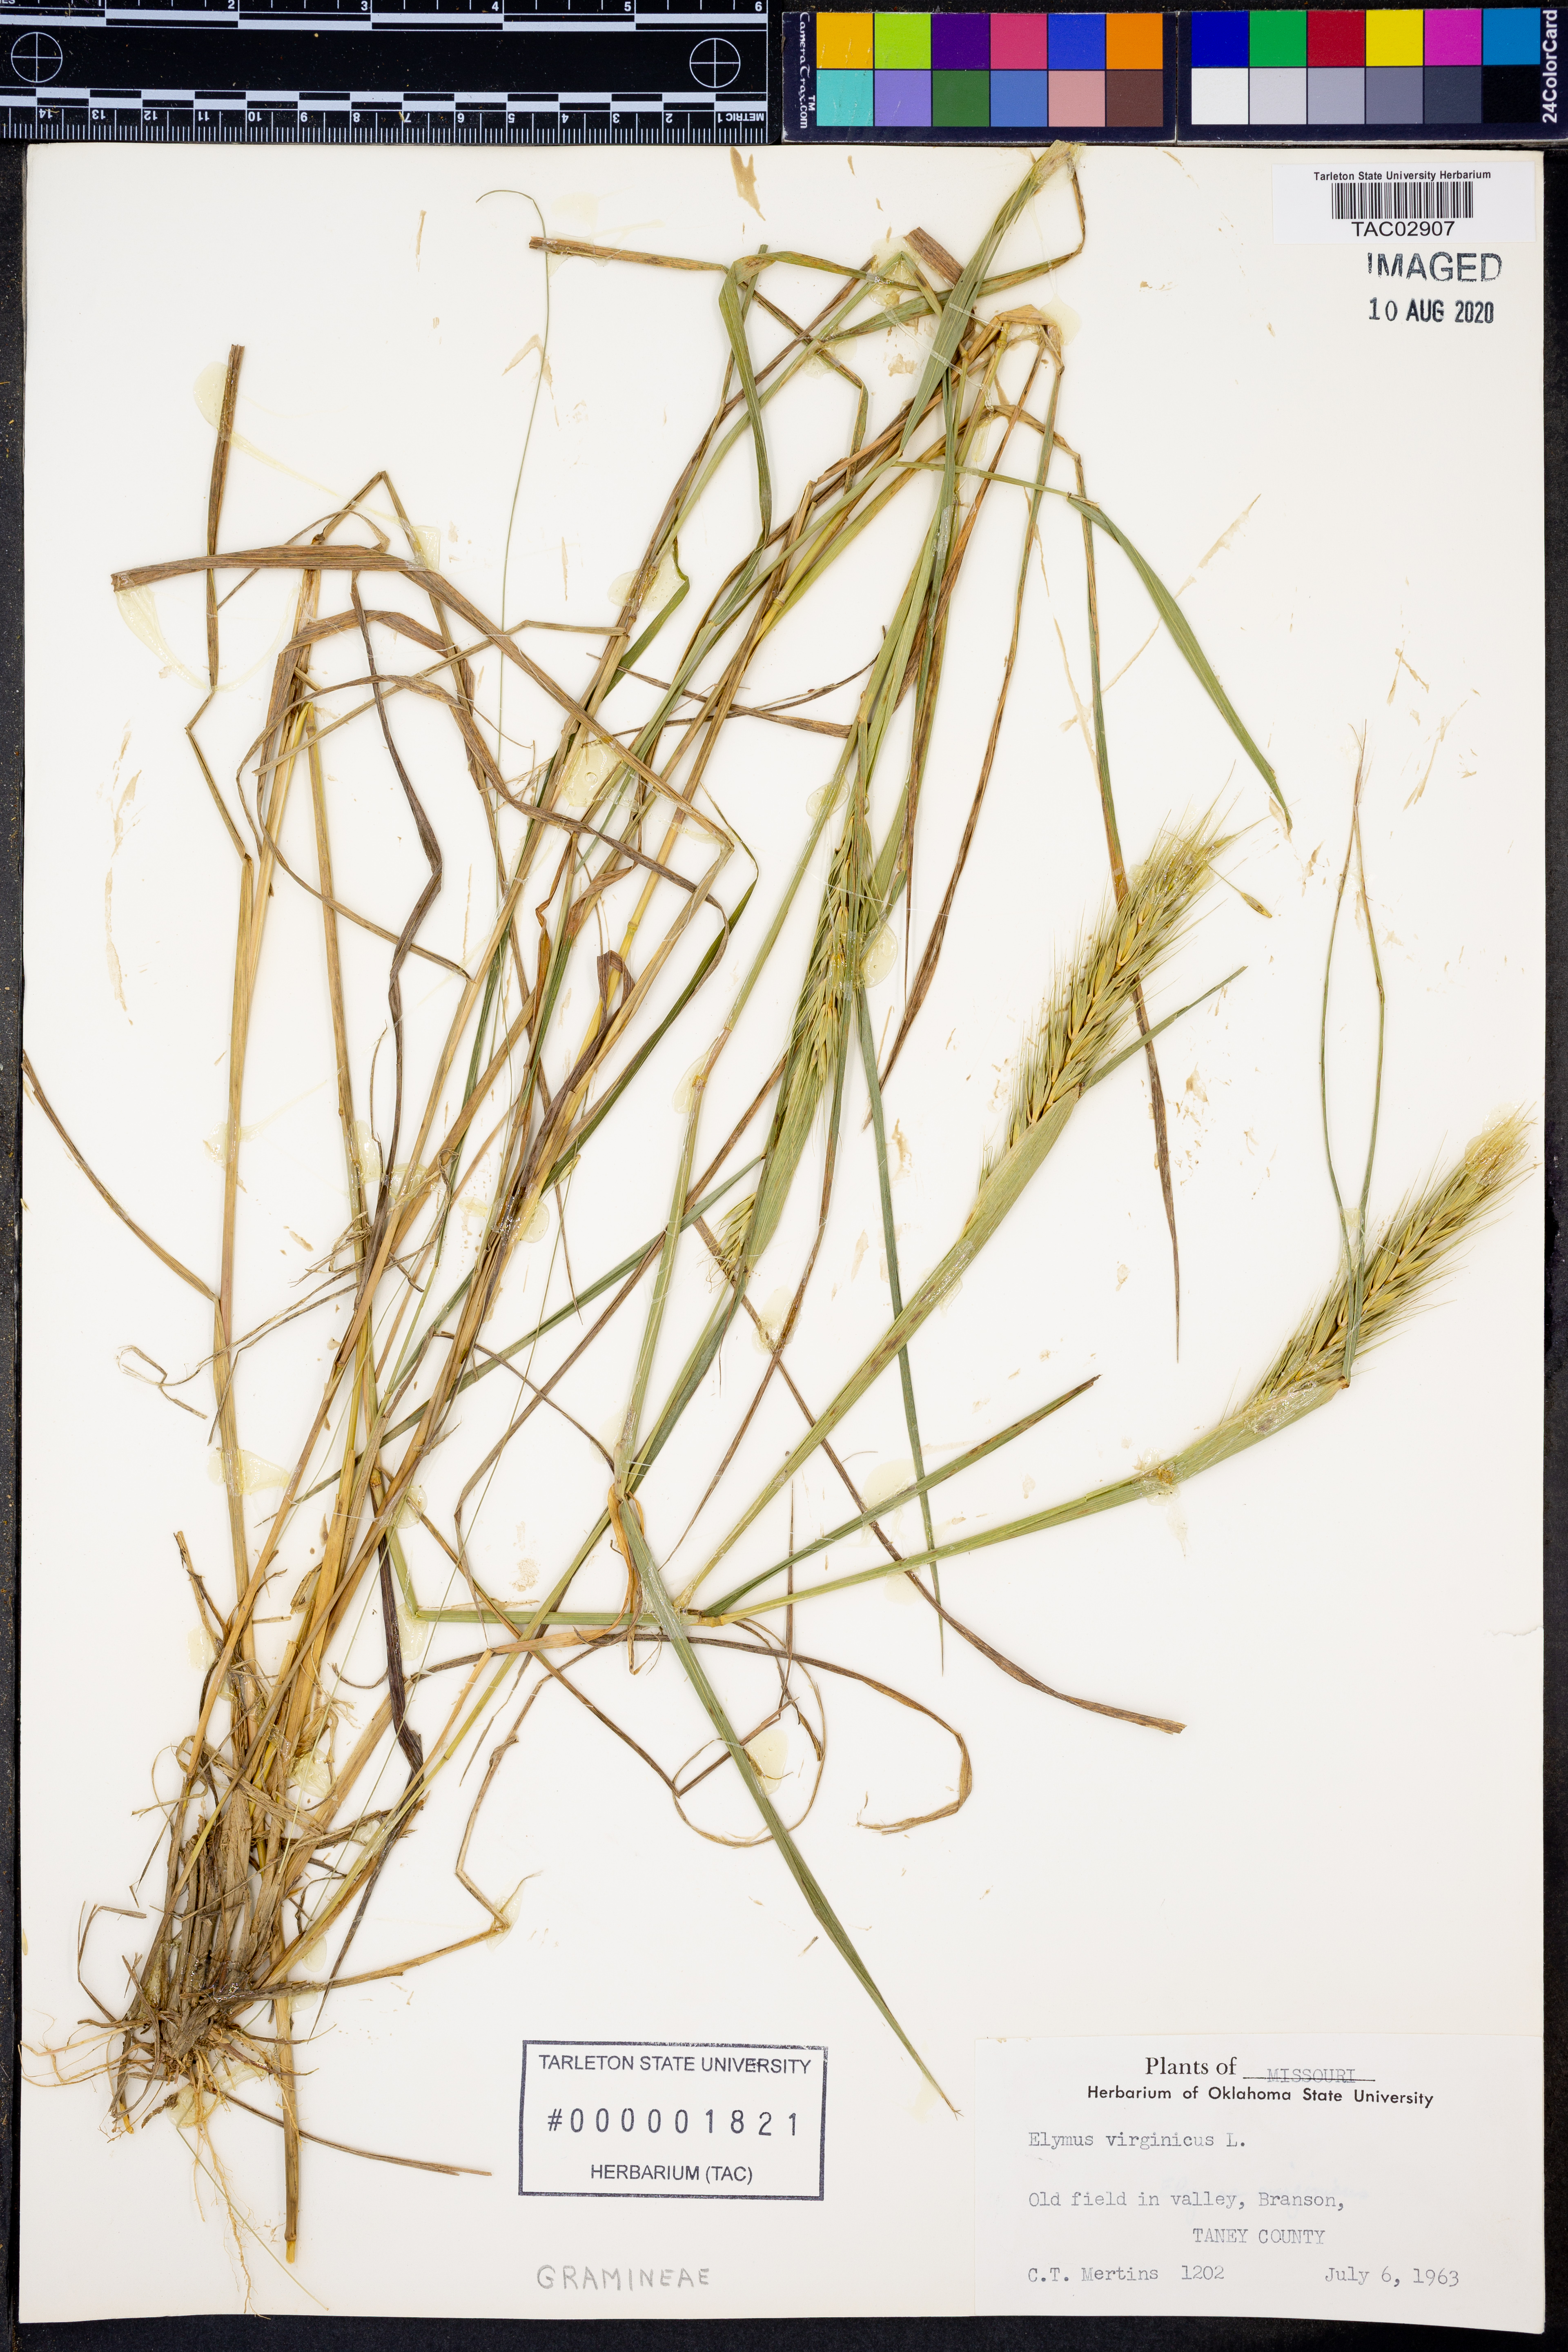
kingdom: Plantae
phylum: Tracheophyta
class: Liliopsida
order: Poales
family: Poaceae
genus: Elymus
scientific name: Elymus virginicus
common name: Common eastern wildrye
